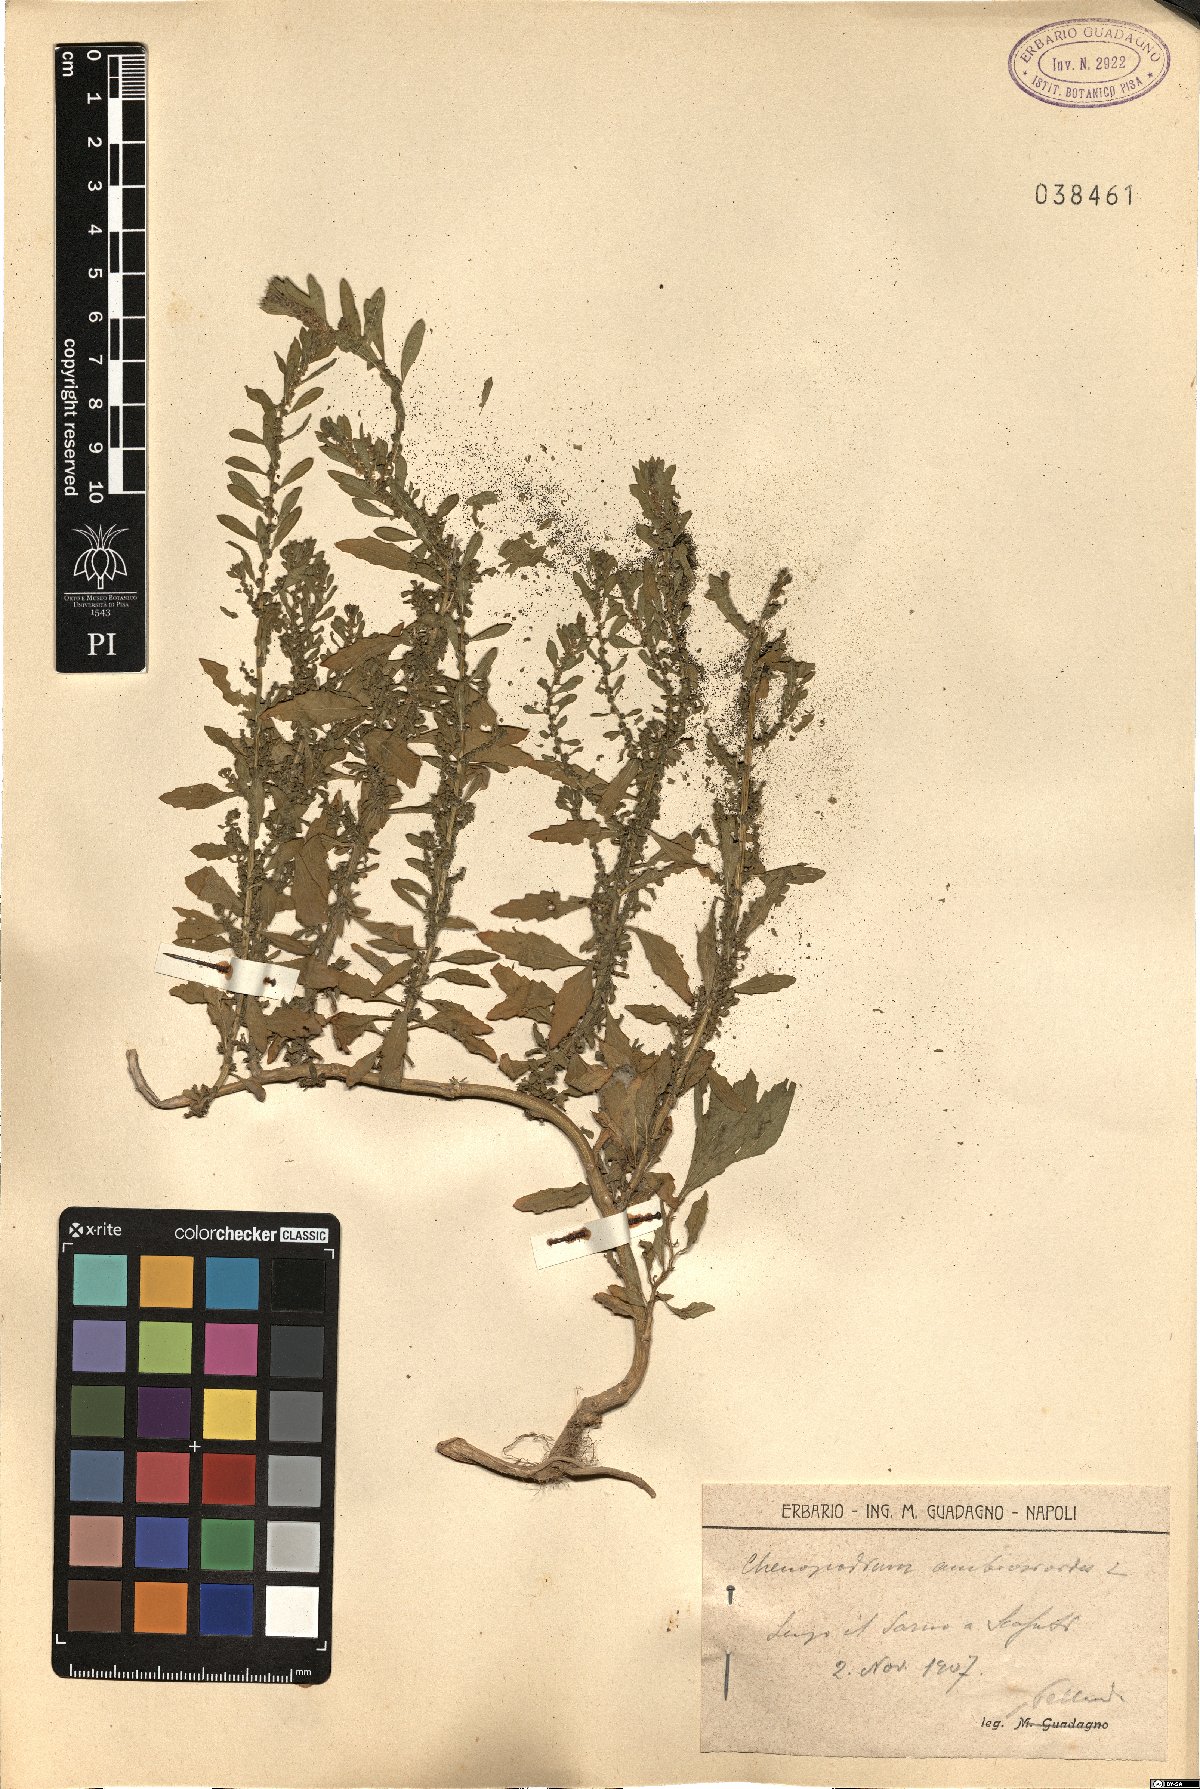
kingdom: Plantae
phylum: Tracheophyta
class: Magnoliopsida
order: Caryophyllales
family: Amaranthaceae
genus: Chenopodium
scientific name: Chenopodium
